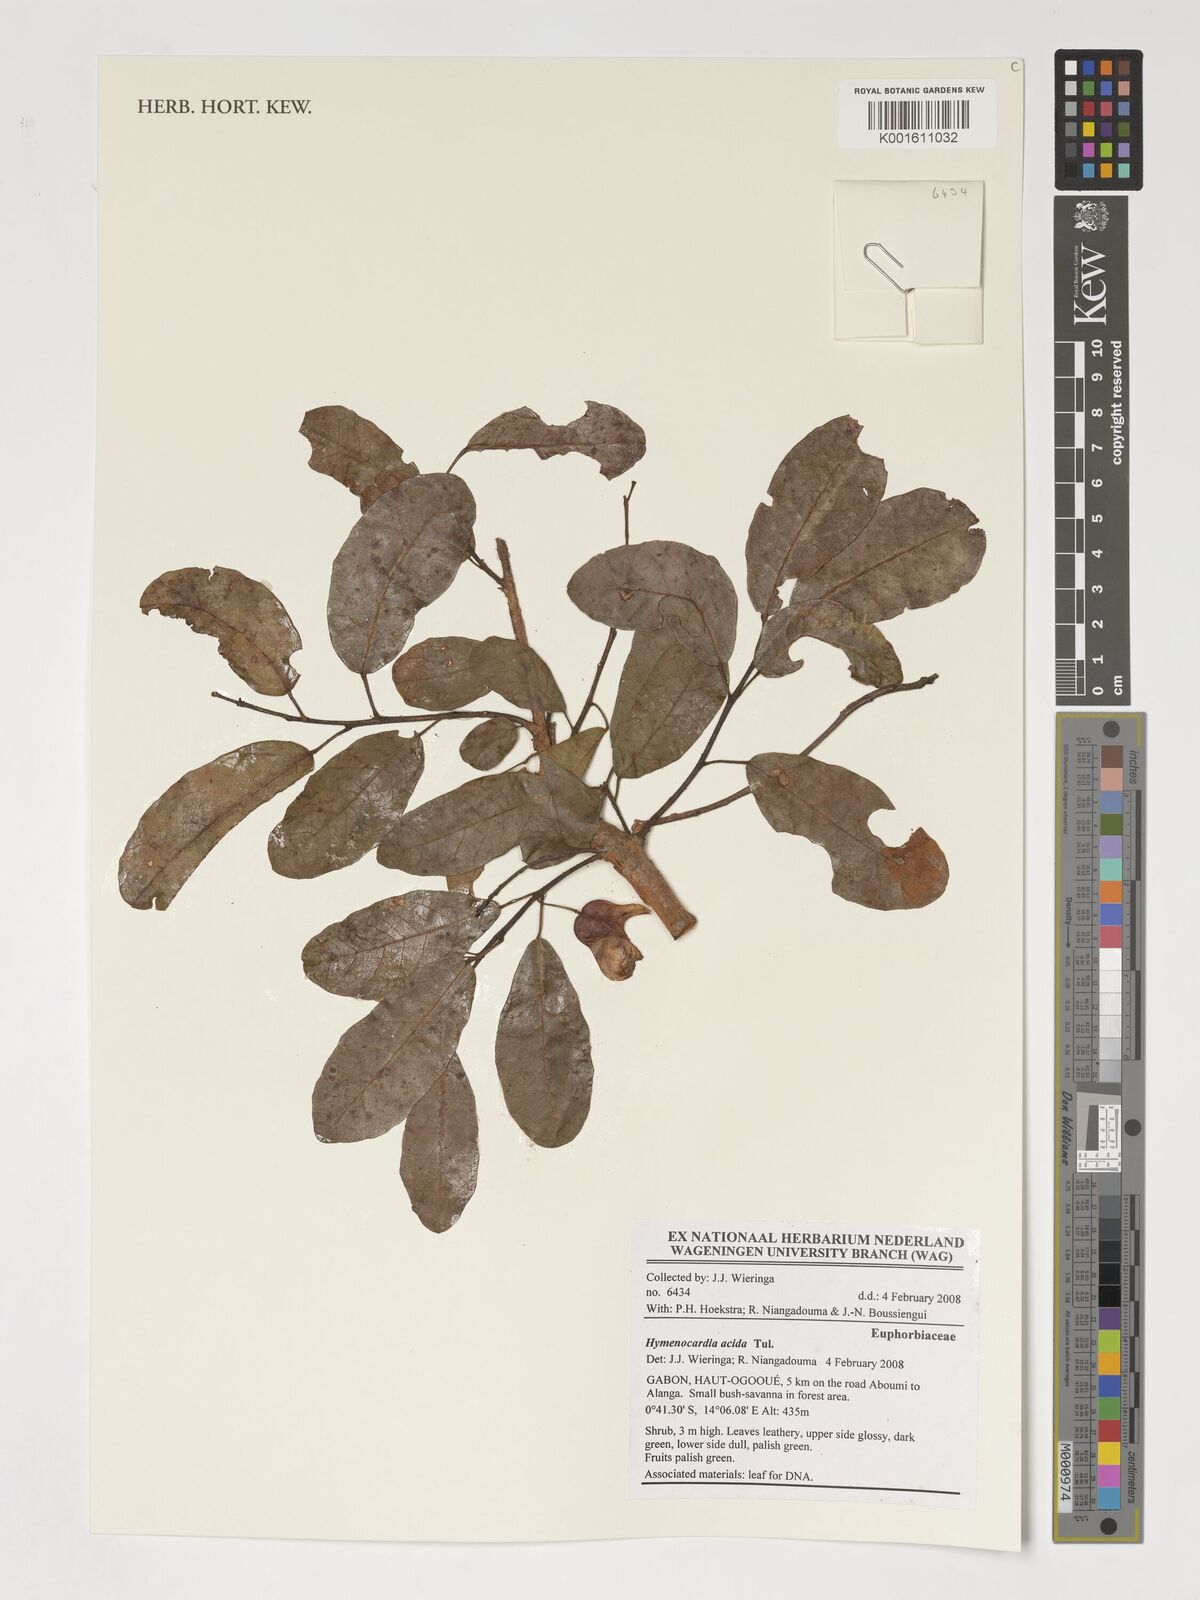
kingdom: Plantae
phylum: Tracheophyta
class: Magnoliopsida
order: Malpighiales
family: Phyllanthaceae
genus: Hymenocardia
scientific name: Hymenocardia acida
